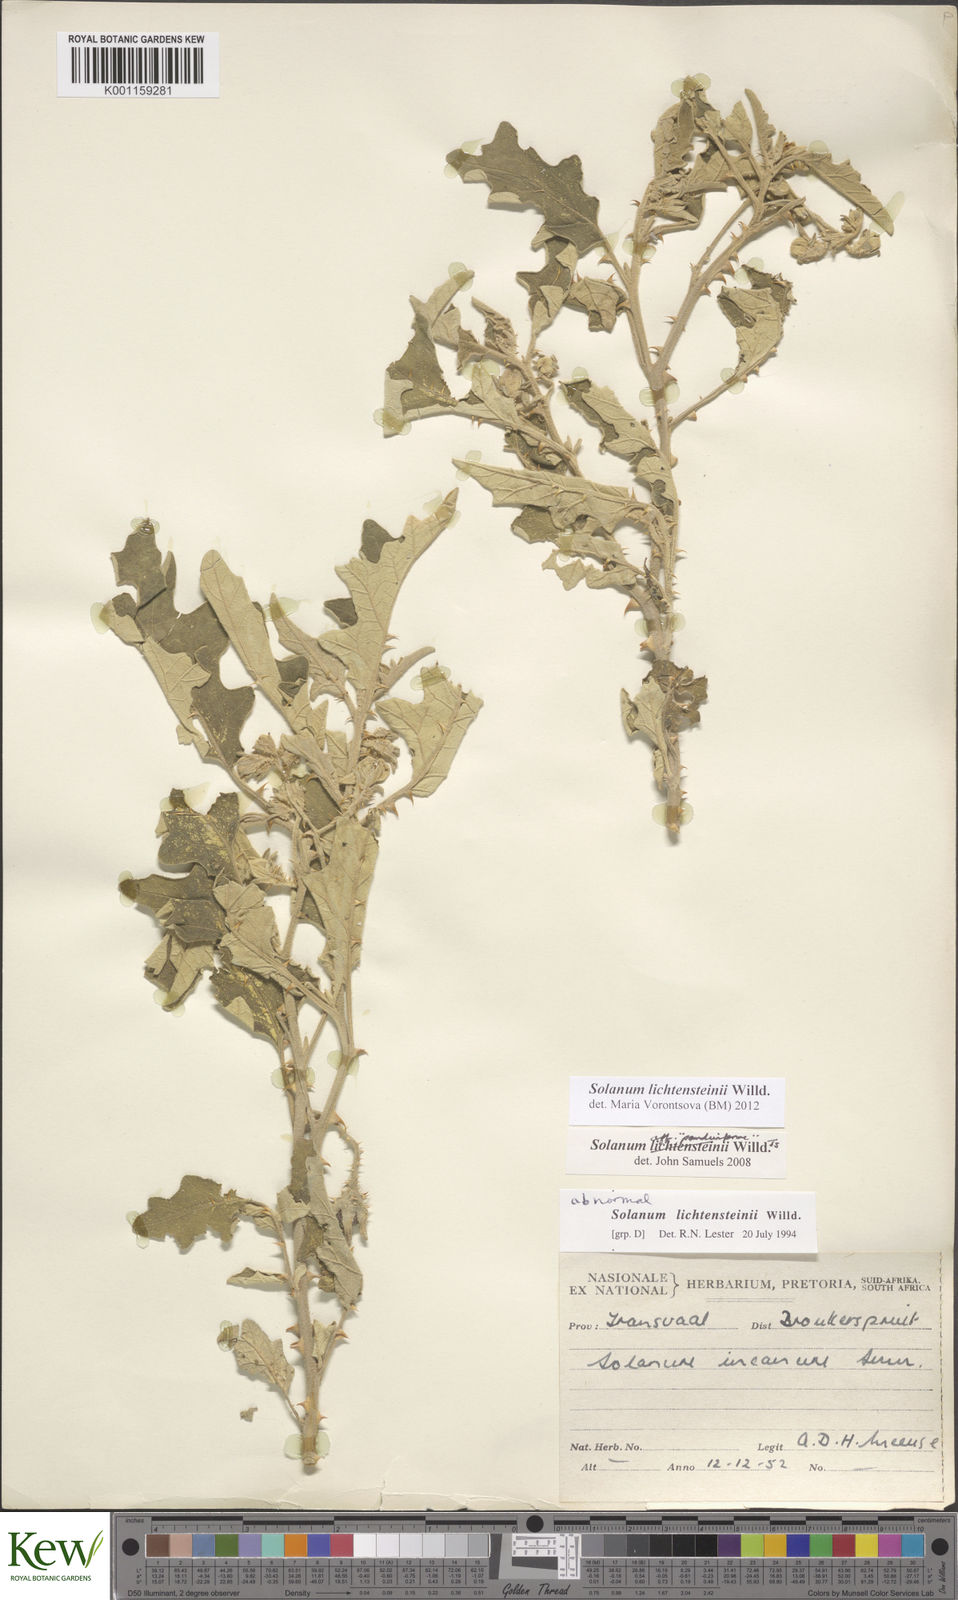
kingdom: Plantae
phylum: Tracheophyta
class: Magnoliopsida
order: Solanales
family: Solanaceae
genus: Solanum
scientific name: Solanum lichtensteinii
